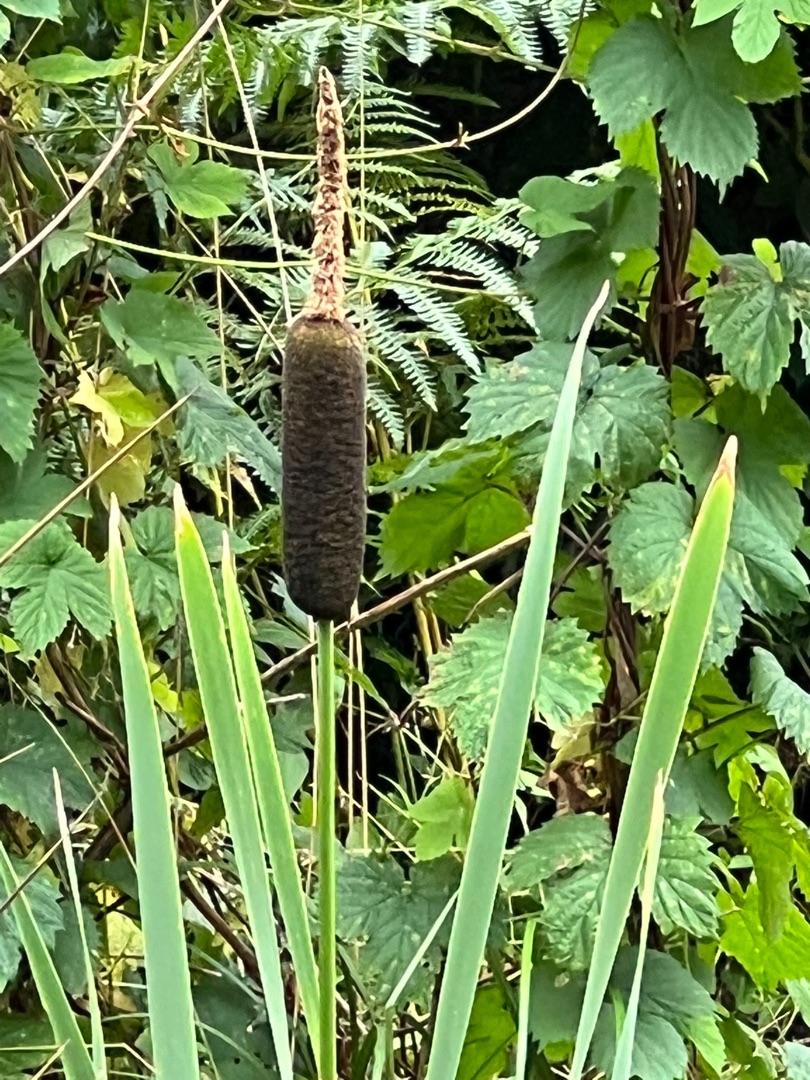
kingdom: Plantae
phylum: Tracheophyta
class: Liliopsida
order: Poales
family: Typhaceae
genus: Typha
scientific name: Typha latifolia
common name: Bredbladet dunhammer
